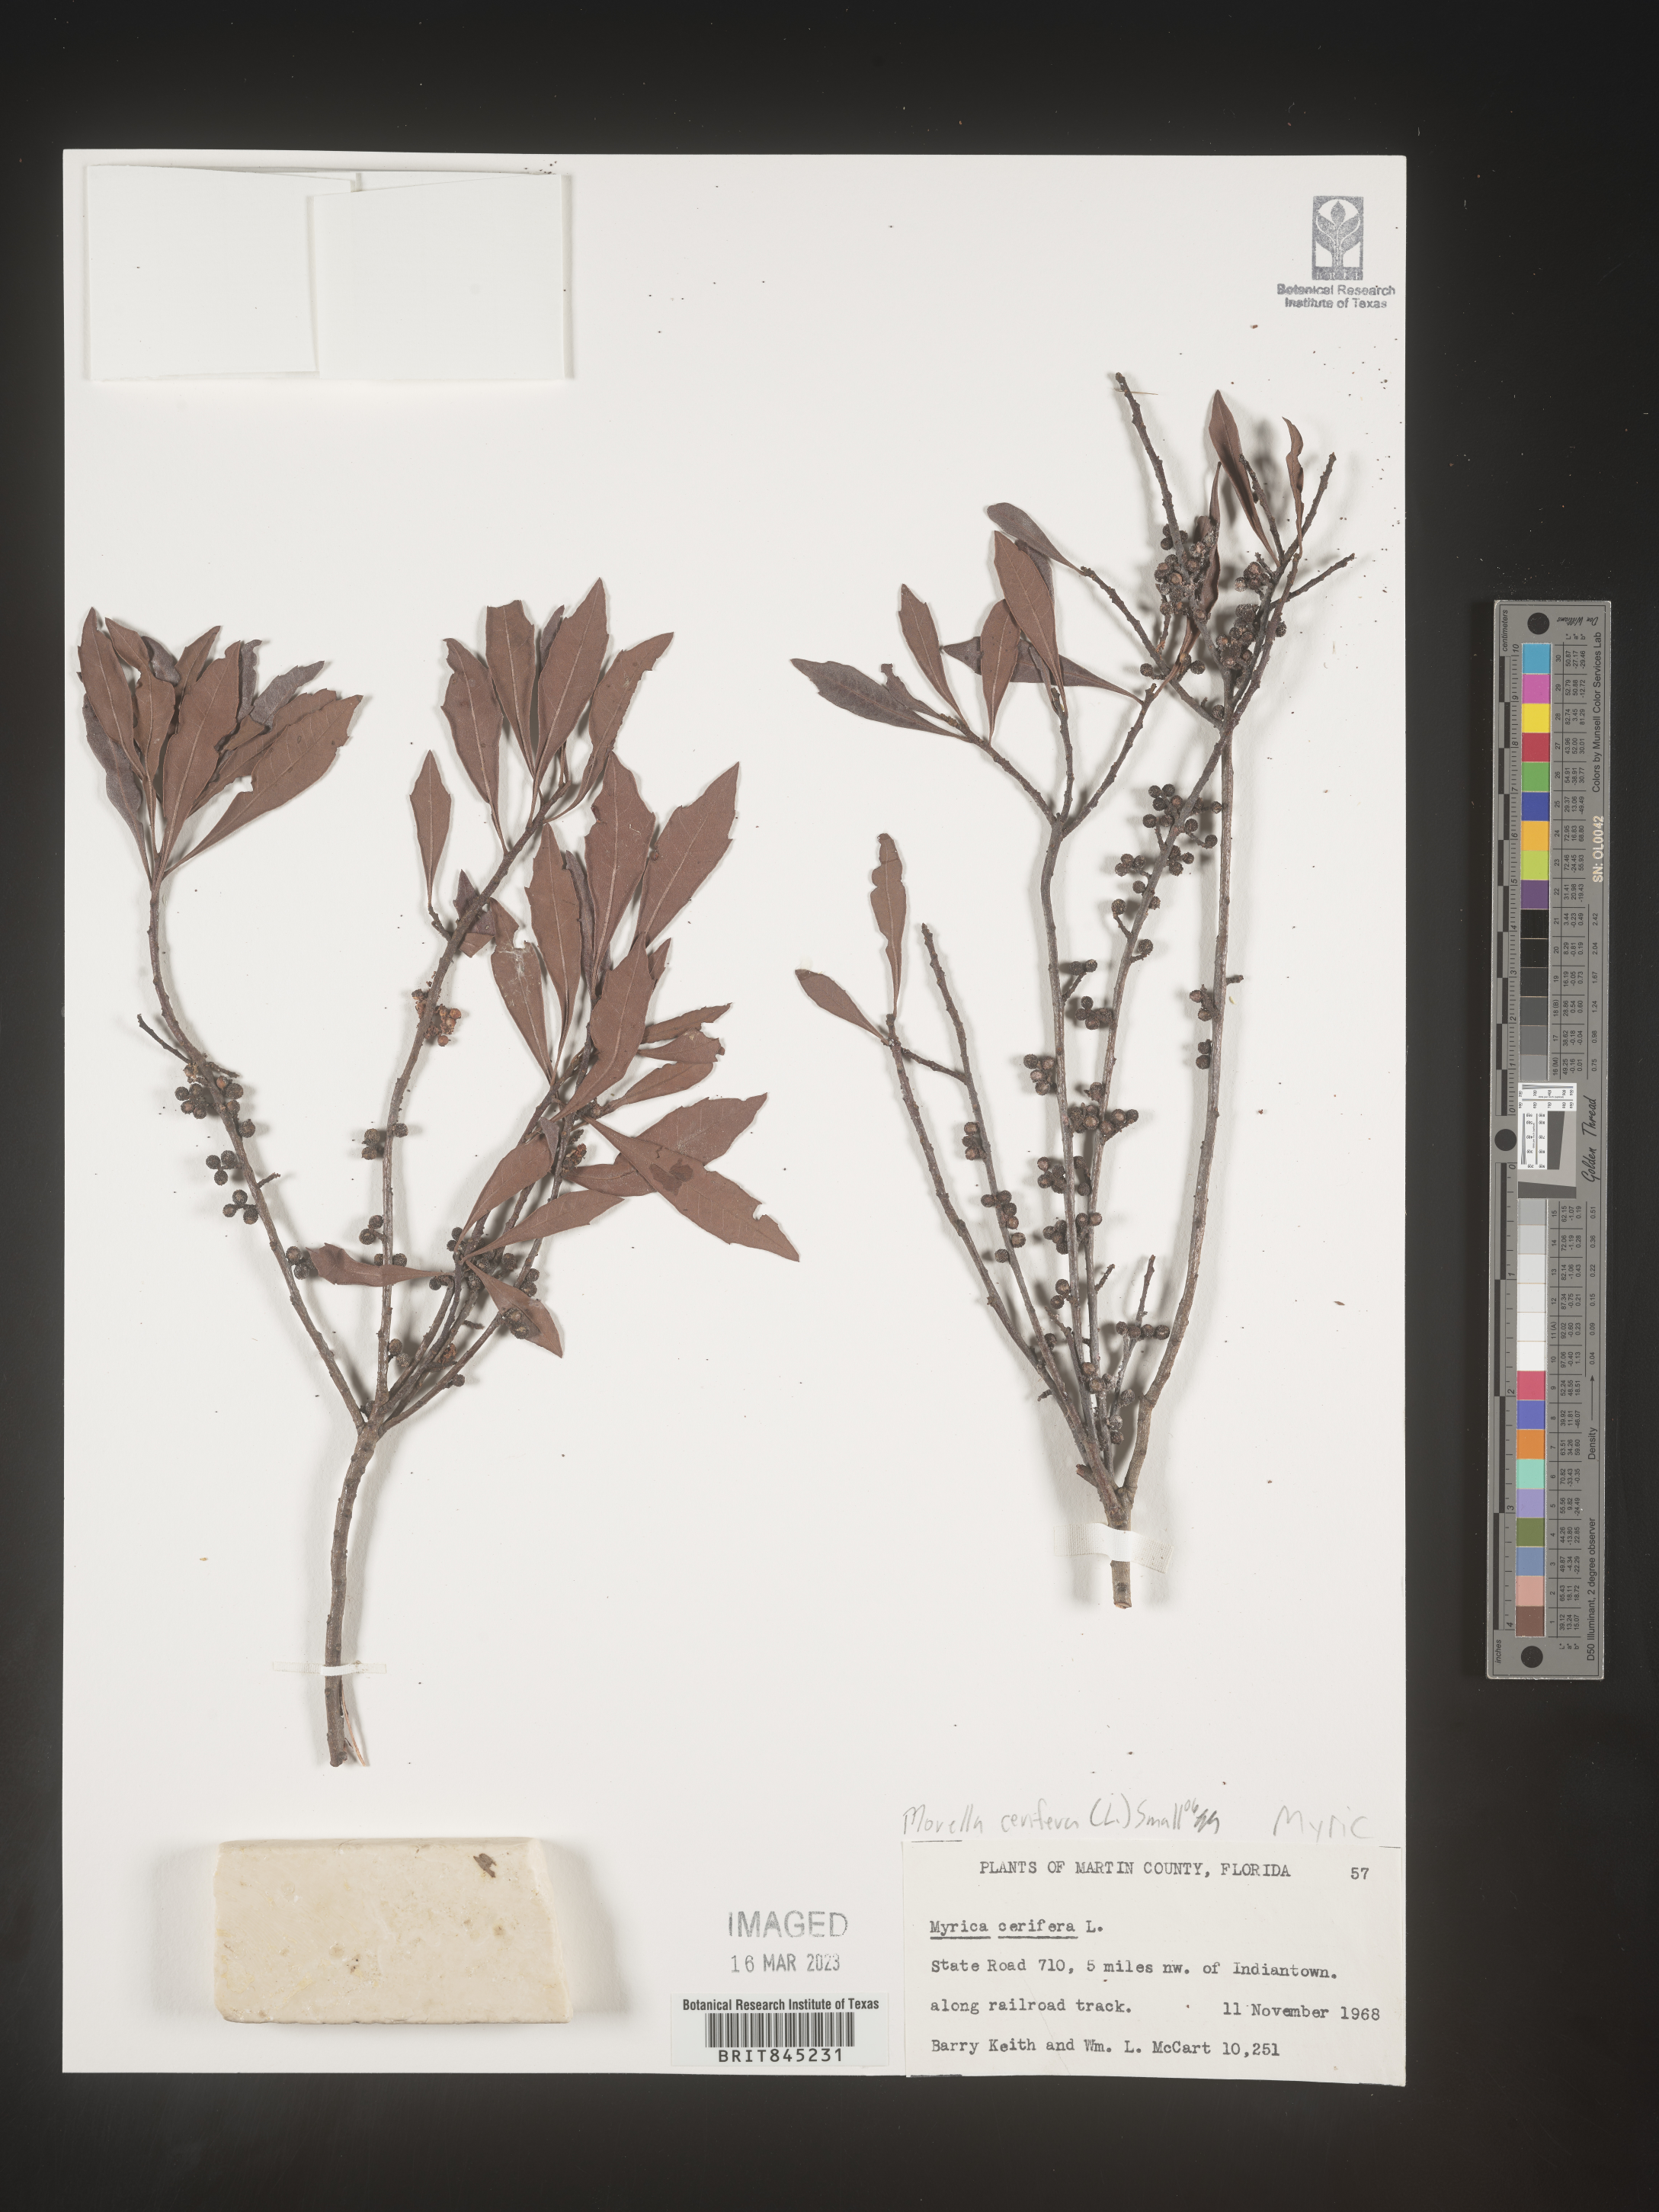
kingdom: Plantae
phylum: Tracheophyta
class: Magnoliopsida
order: Fagales
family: Myricaceae
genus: Morella
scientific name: Morella cerifera
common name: Wax myrtle
